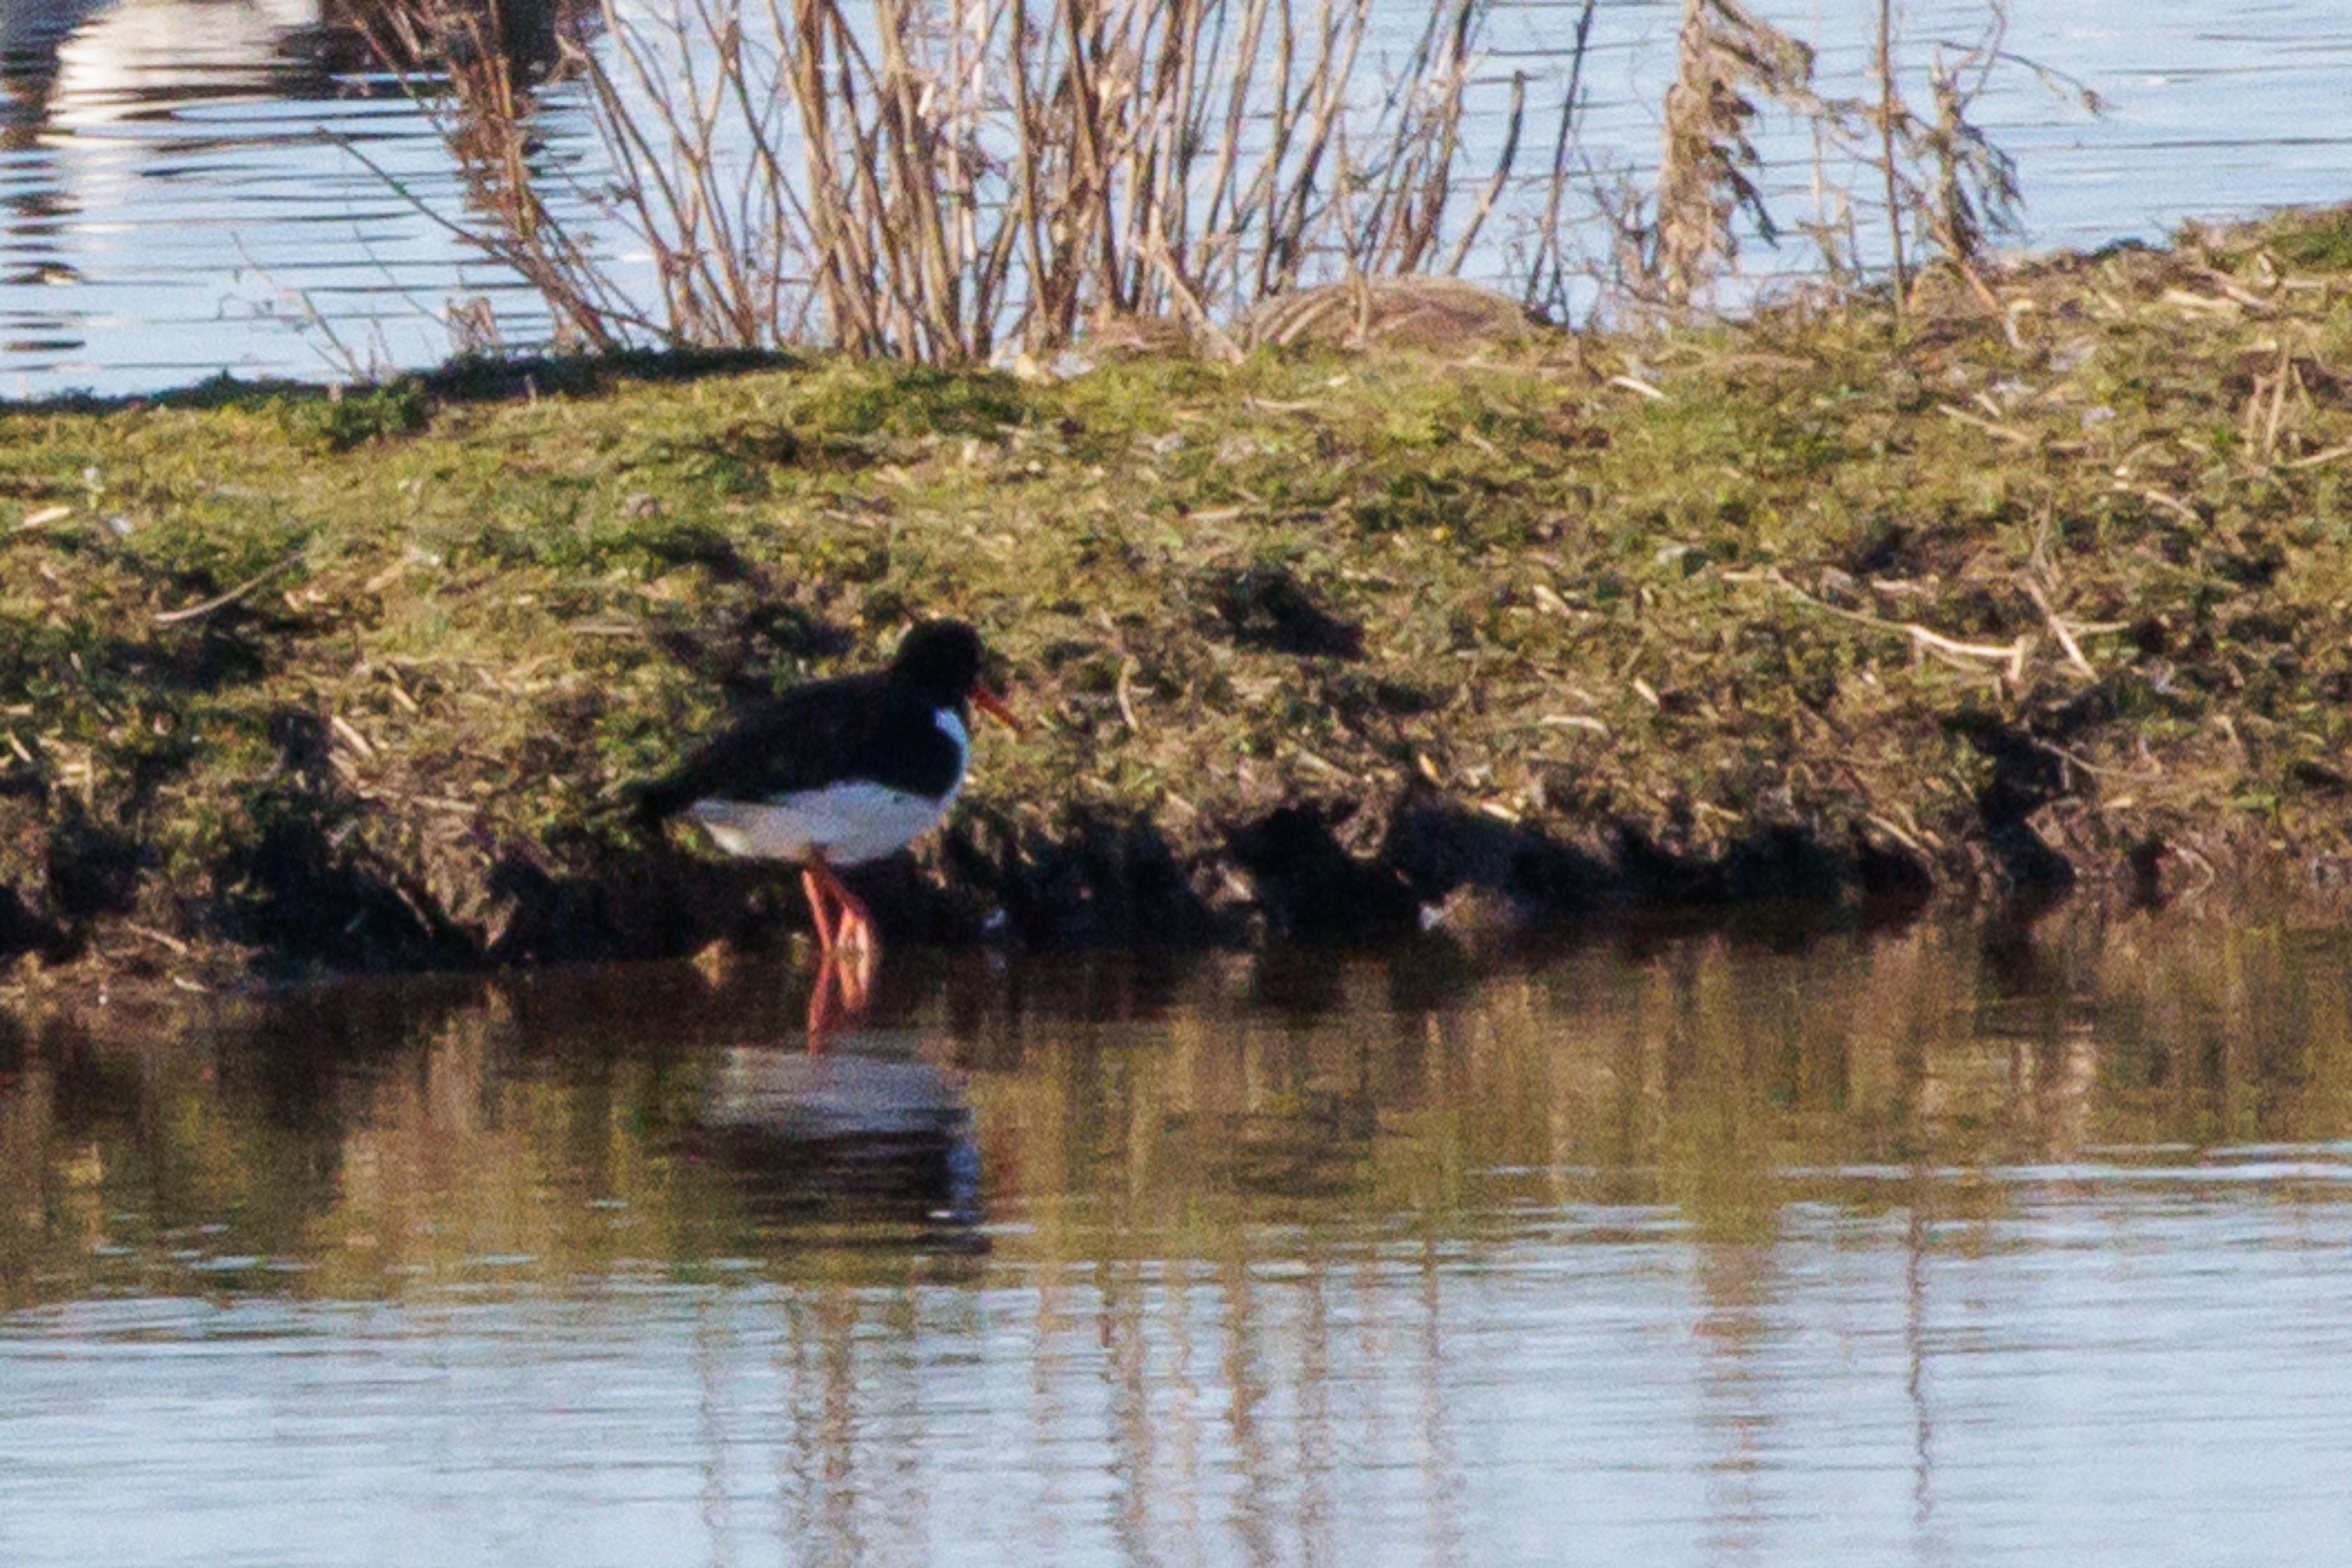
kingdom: Animalia
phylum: Chordata
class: Aves
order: Charadriiformes
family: Haematopodidae
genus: Haematopus
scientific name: Haematopus ostralegus
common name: Strandskade
